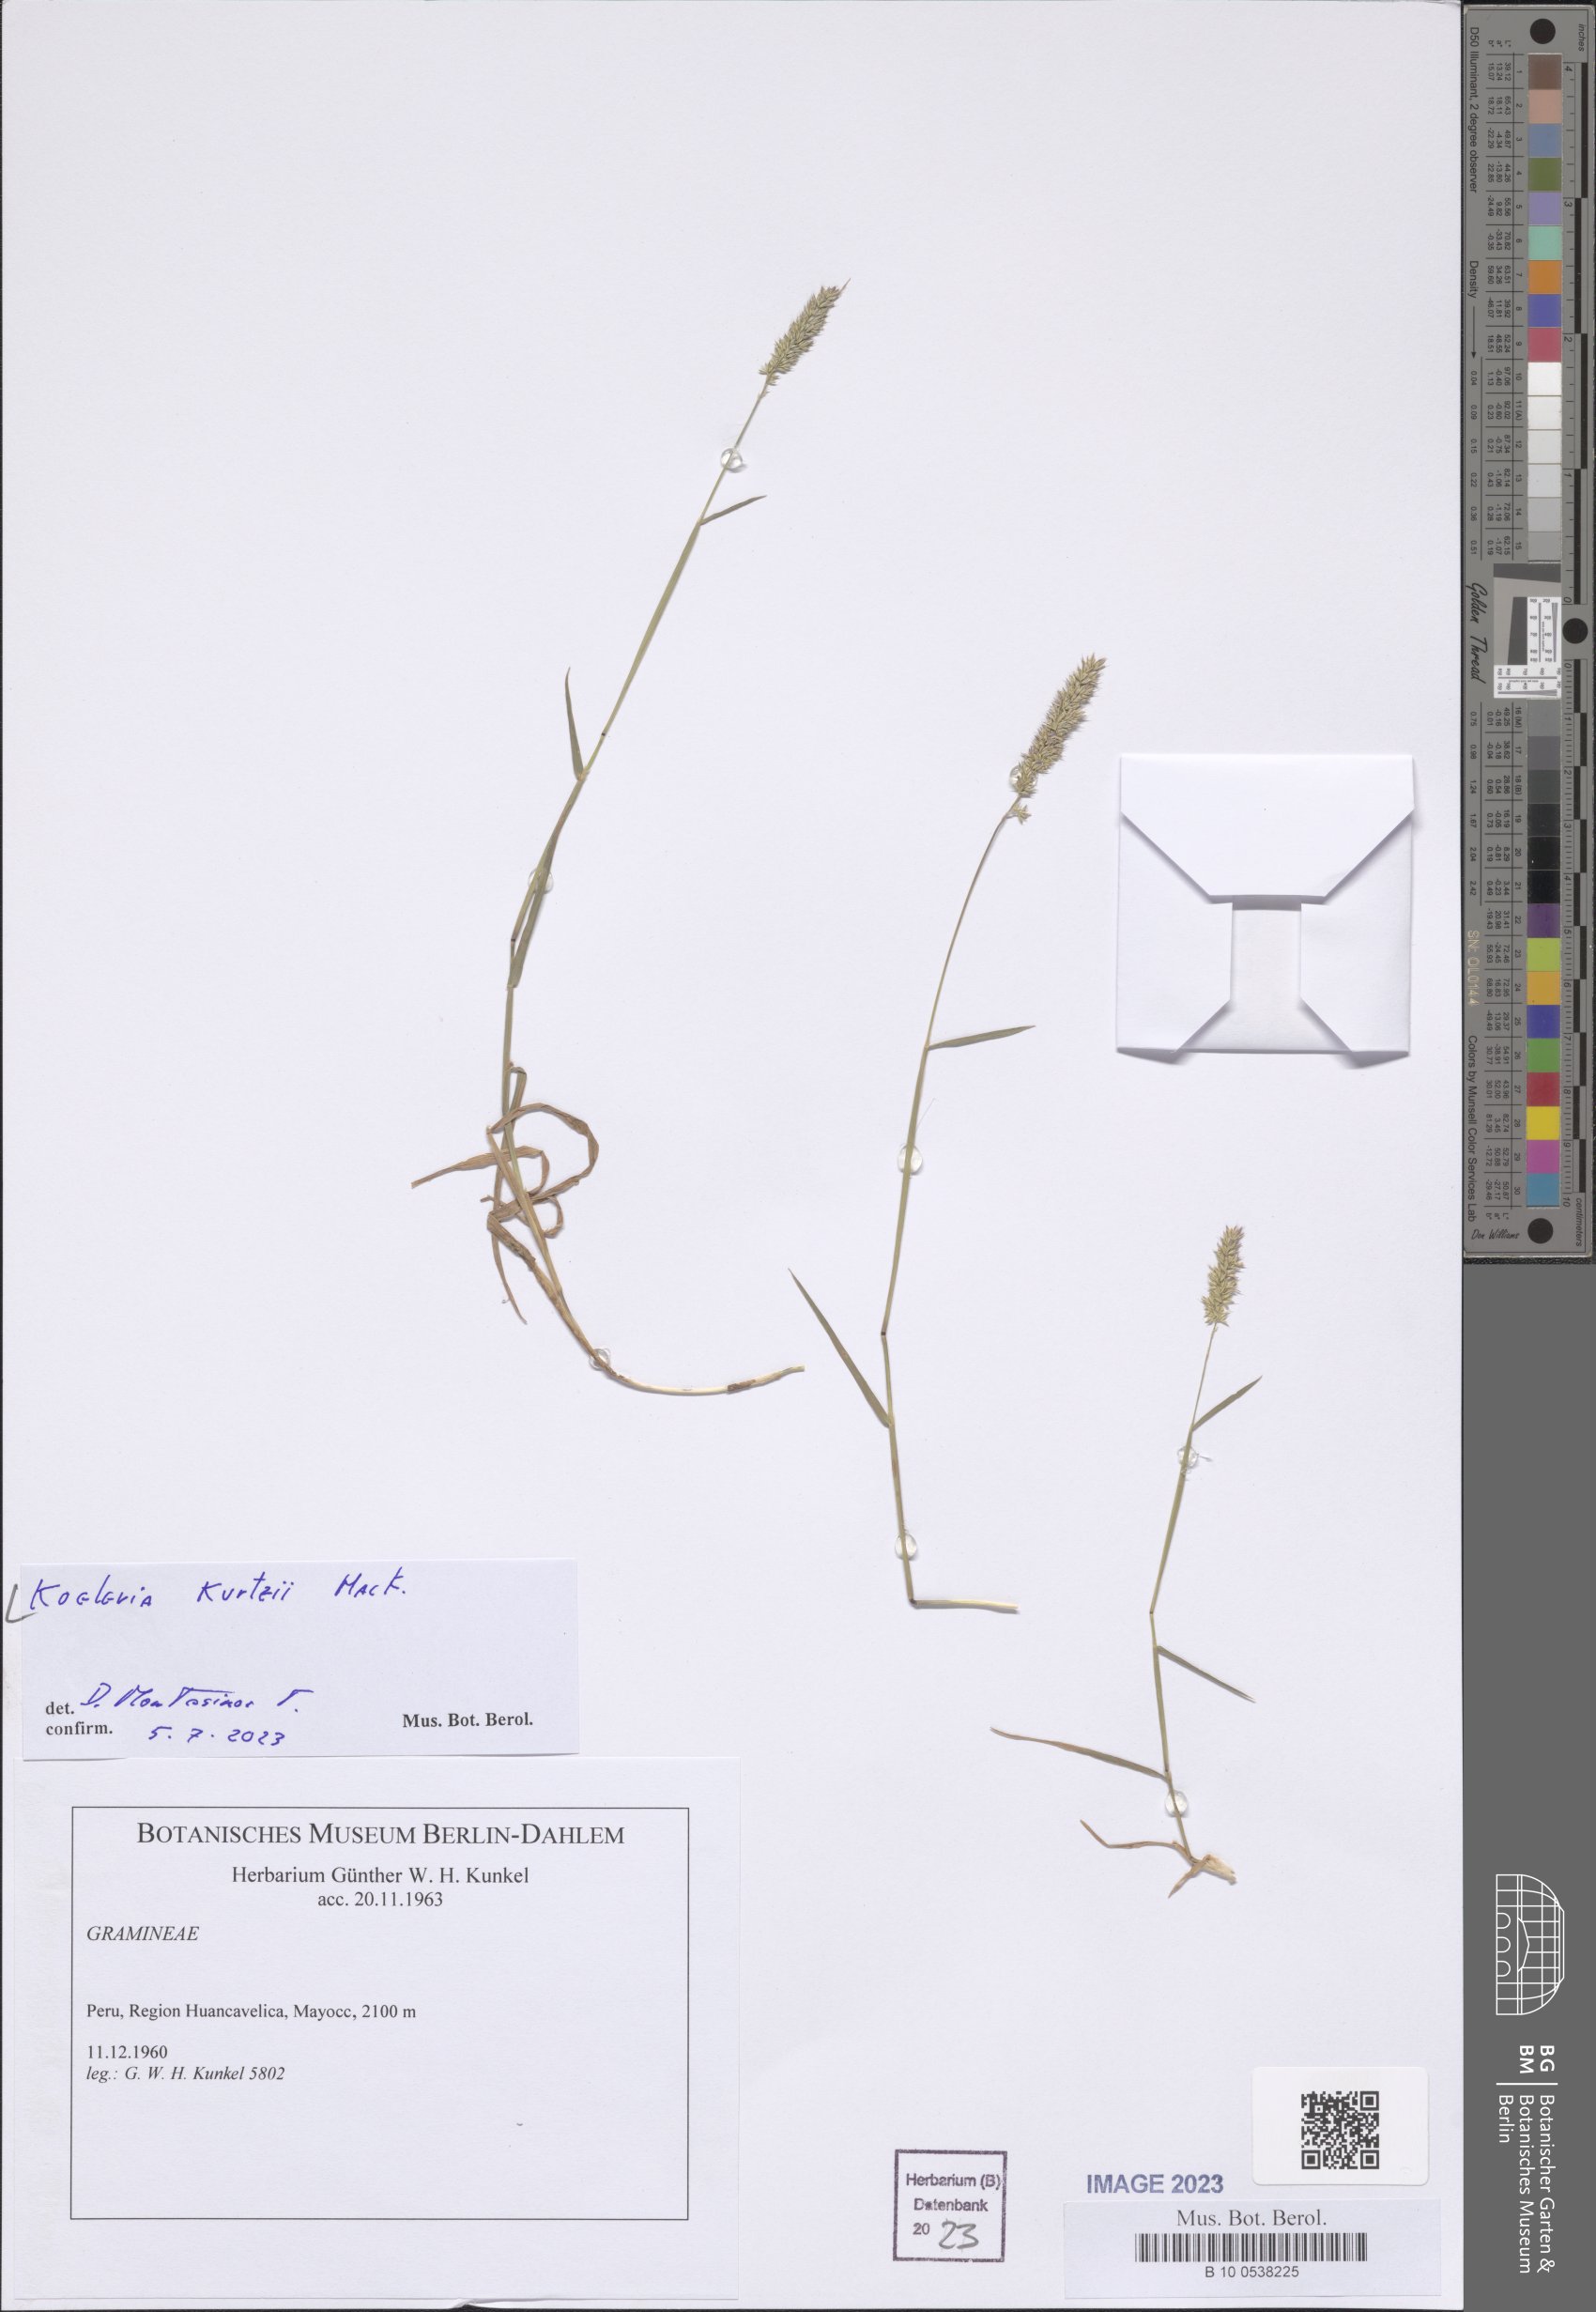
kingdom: Plantae
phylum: Tracheophyta
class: Liliopsida
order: Poales
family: Poaceae
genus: Koeleria
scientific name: Koeleria kurtzii
